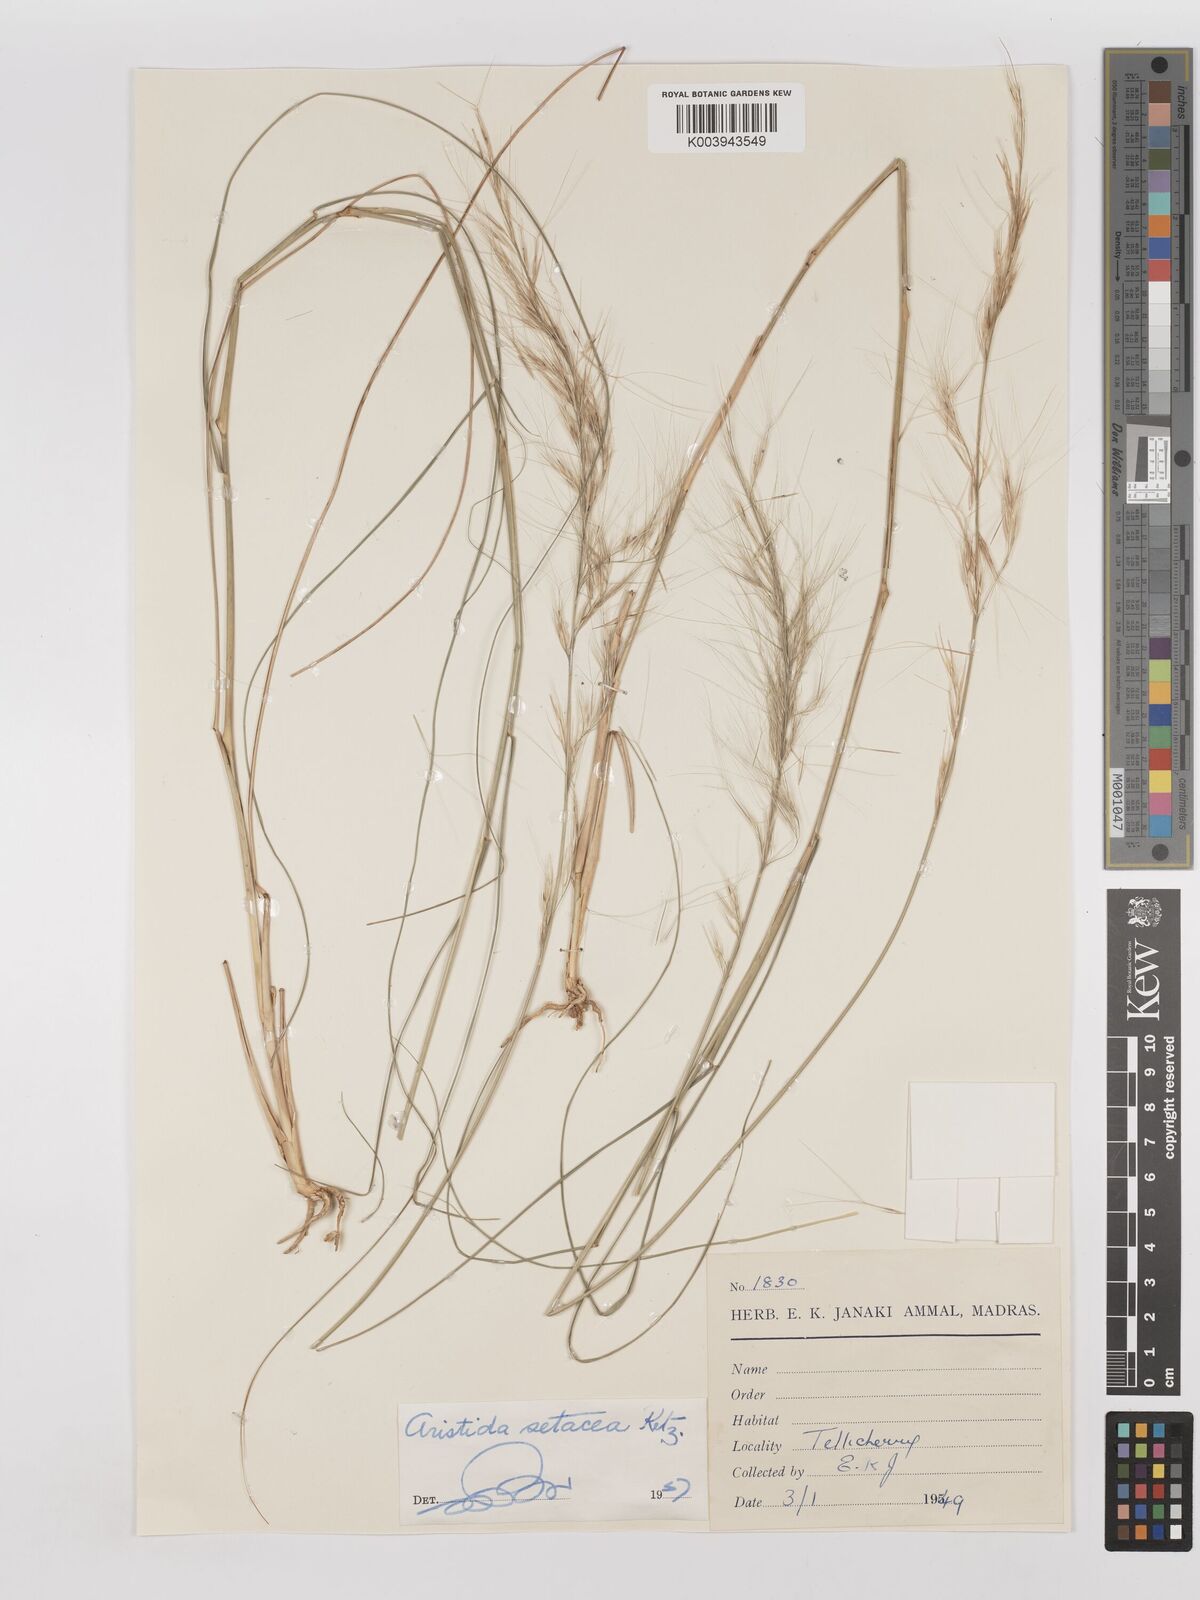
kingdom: Plantae
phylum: Tracheophyta
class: Liliopsida
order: Poales
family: Poaceae
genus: Aristida
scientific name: Aristida setacea
